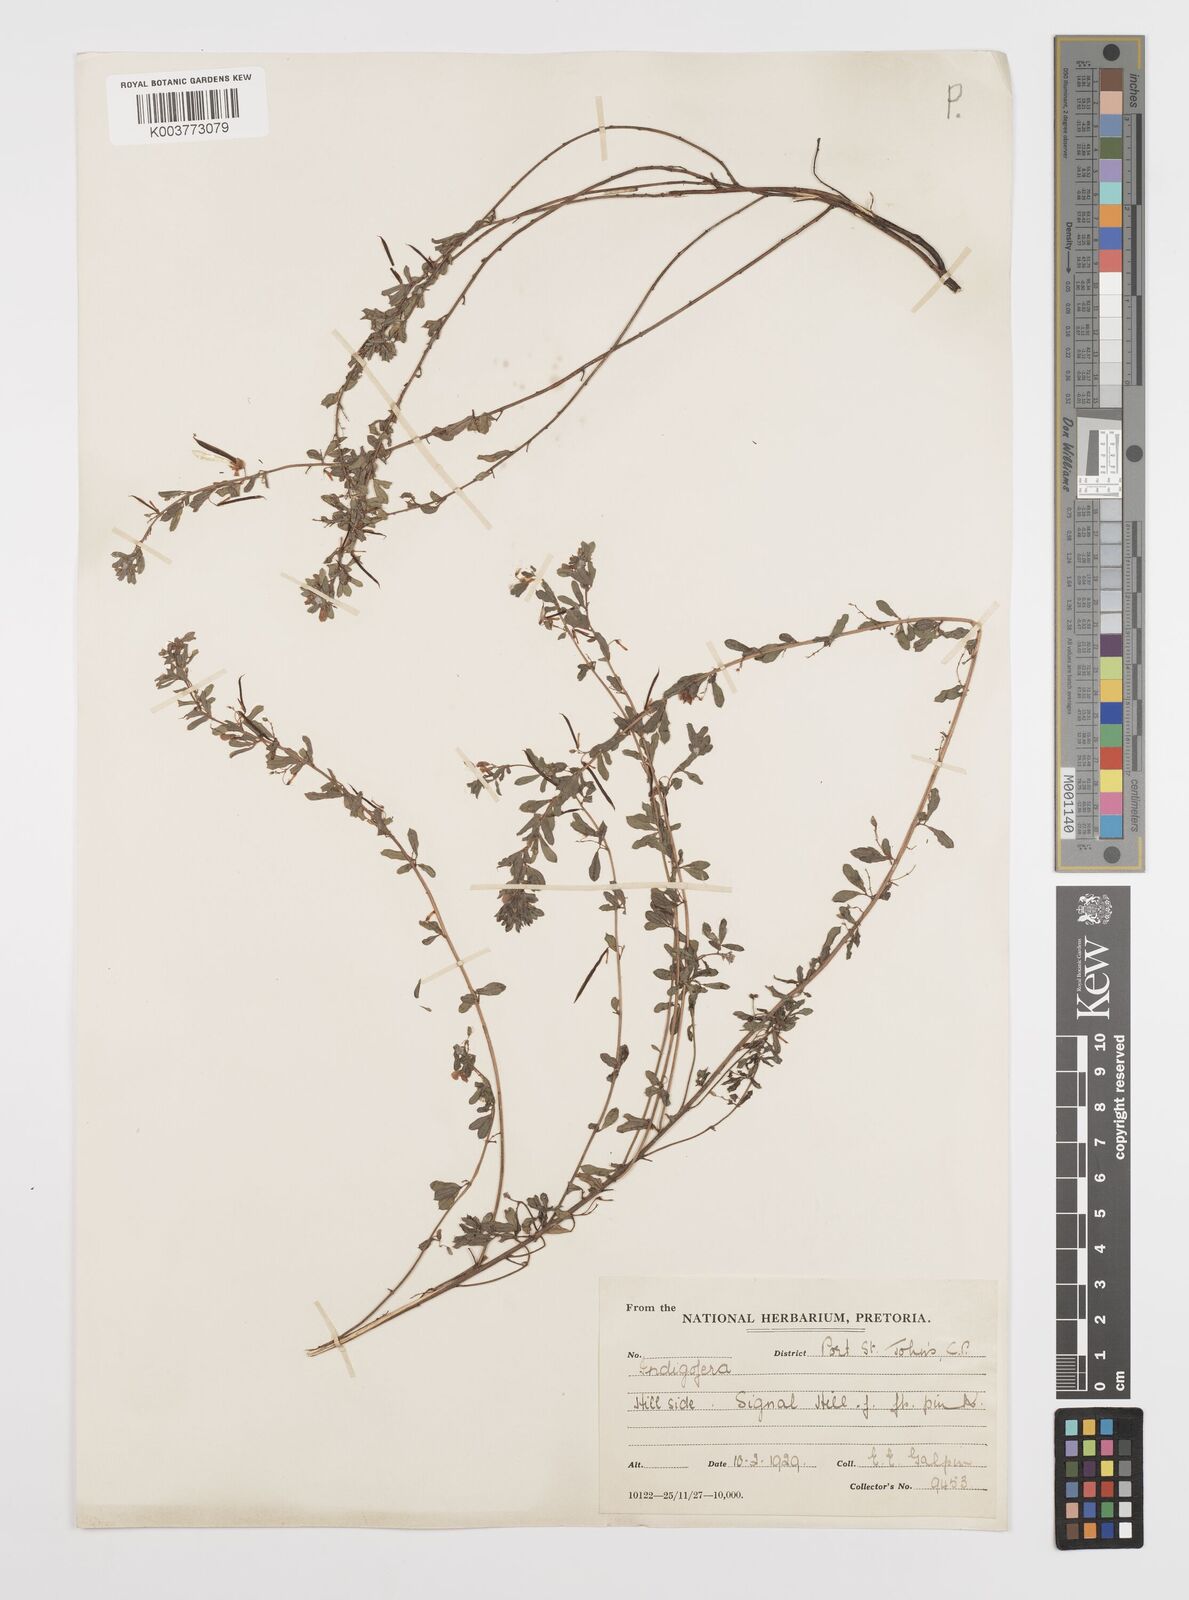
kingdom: Plantae
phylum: Tracheophyta
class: Magnoliopsida
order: Fabales
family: Fabaceae
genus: Indigofera
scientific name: Indigofera
